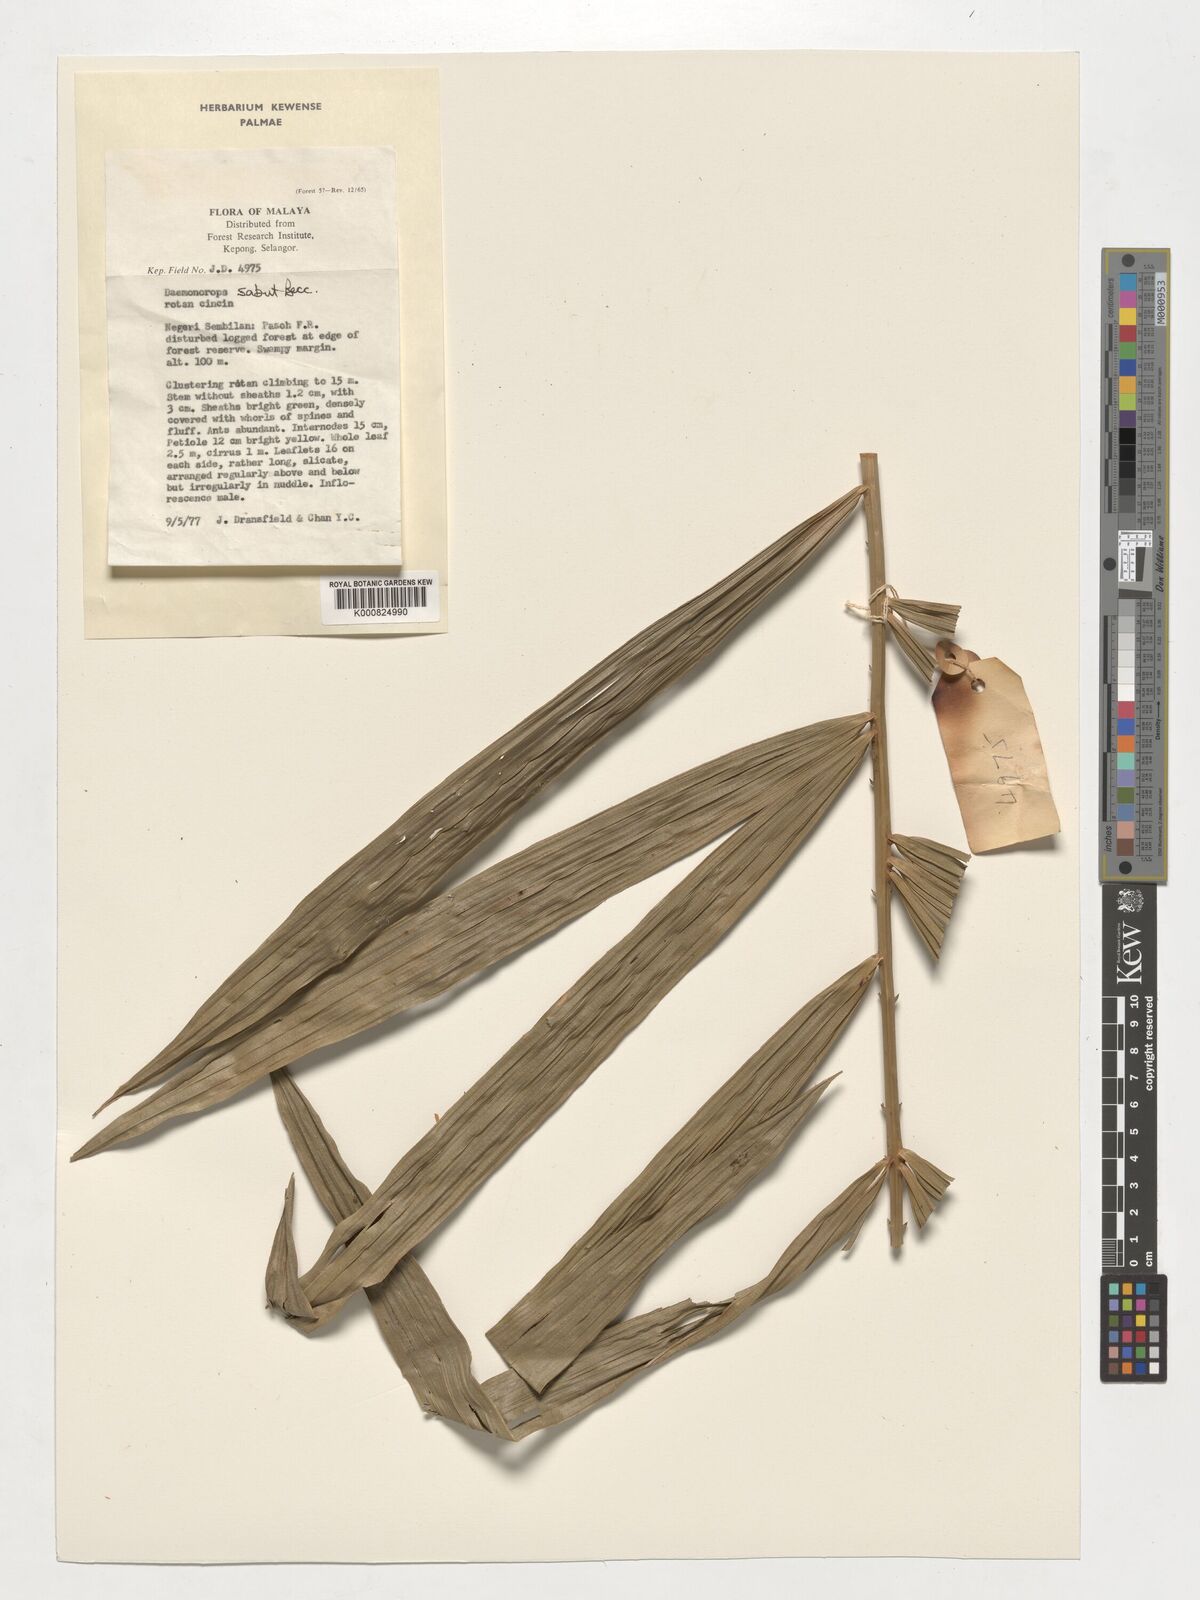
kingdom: Plantae
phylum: Tracheophyta
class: Liliopsida
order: Arecales
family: Arecaceae
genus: Calamus
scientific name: Calamus crinitus
